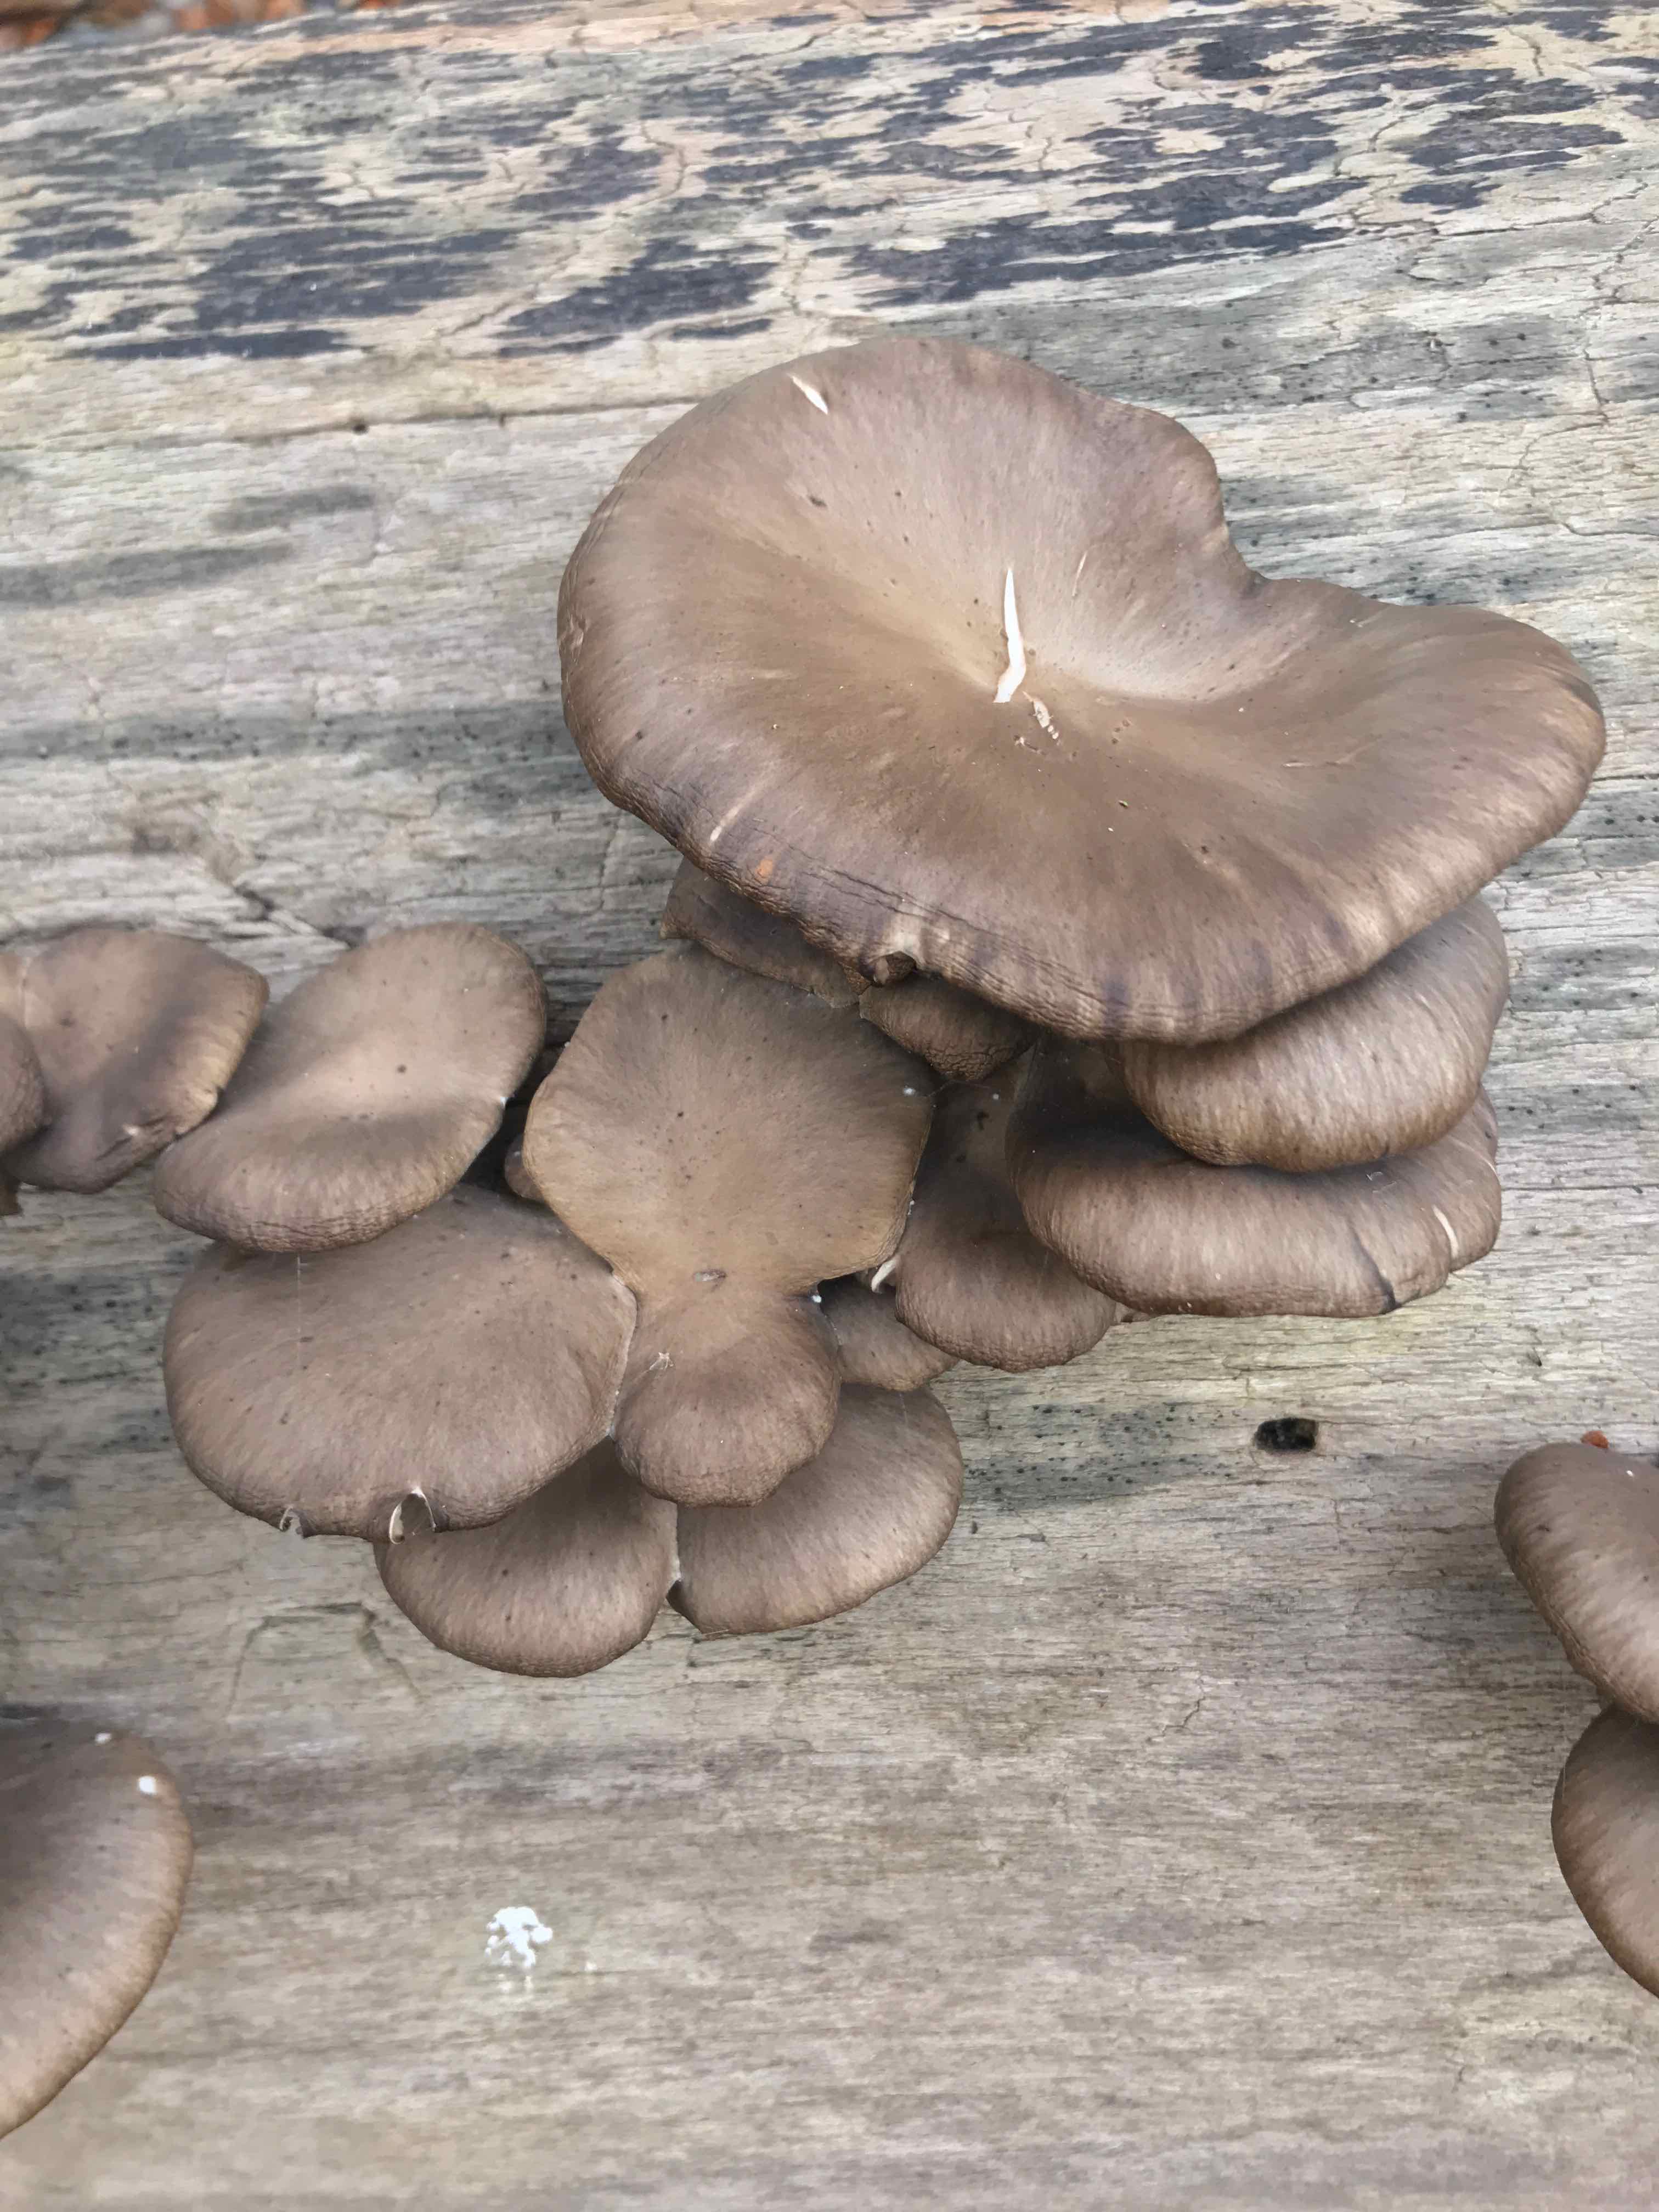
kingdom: Fungi
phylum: Basidiomycota
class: Agaricomycetes
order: Agaricales
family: Pleurotaceae
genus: Pleurotus
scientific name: Pleurotus ostreatus
